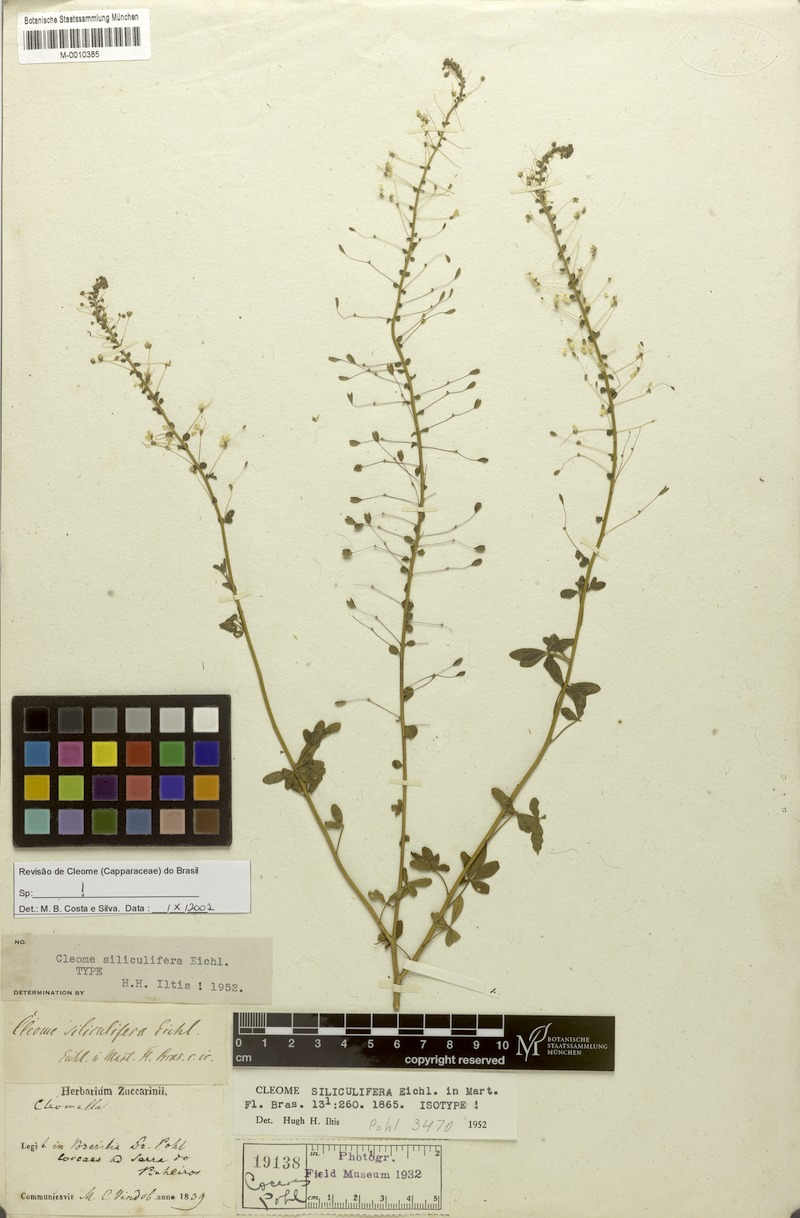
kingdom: Plantae
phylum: Tracheophyta
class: Magnoliopsida
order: Brassicales
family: Cleomaceae
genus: Tarenaya
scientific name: Tarenaya siliculifera
